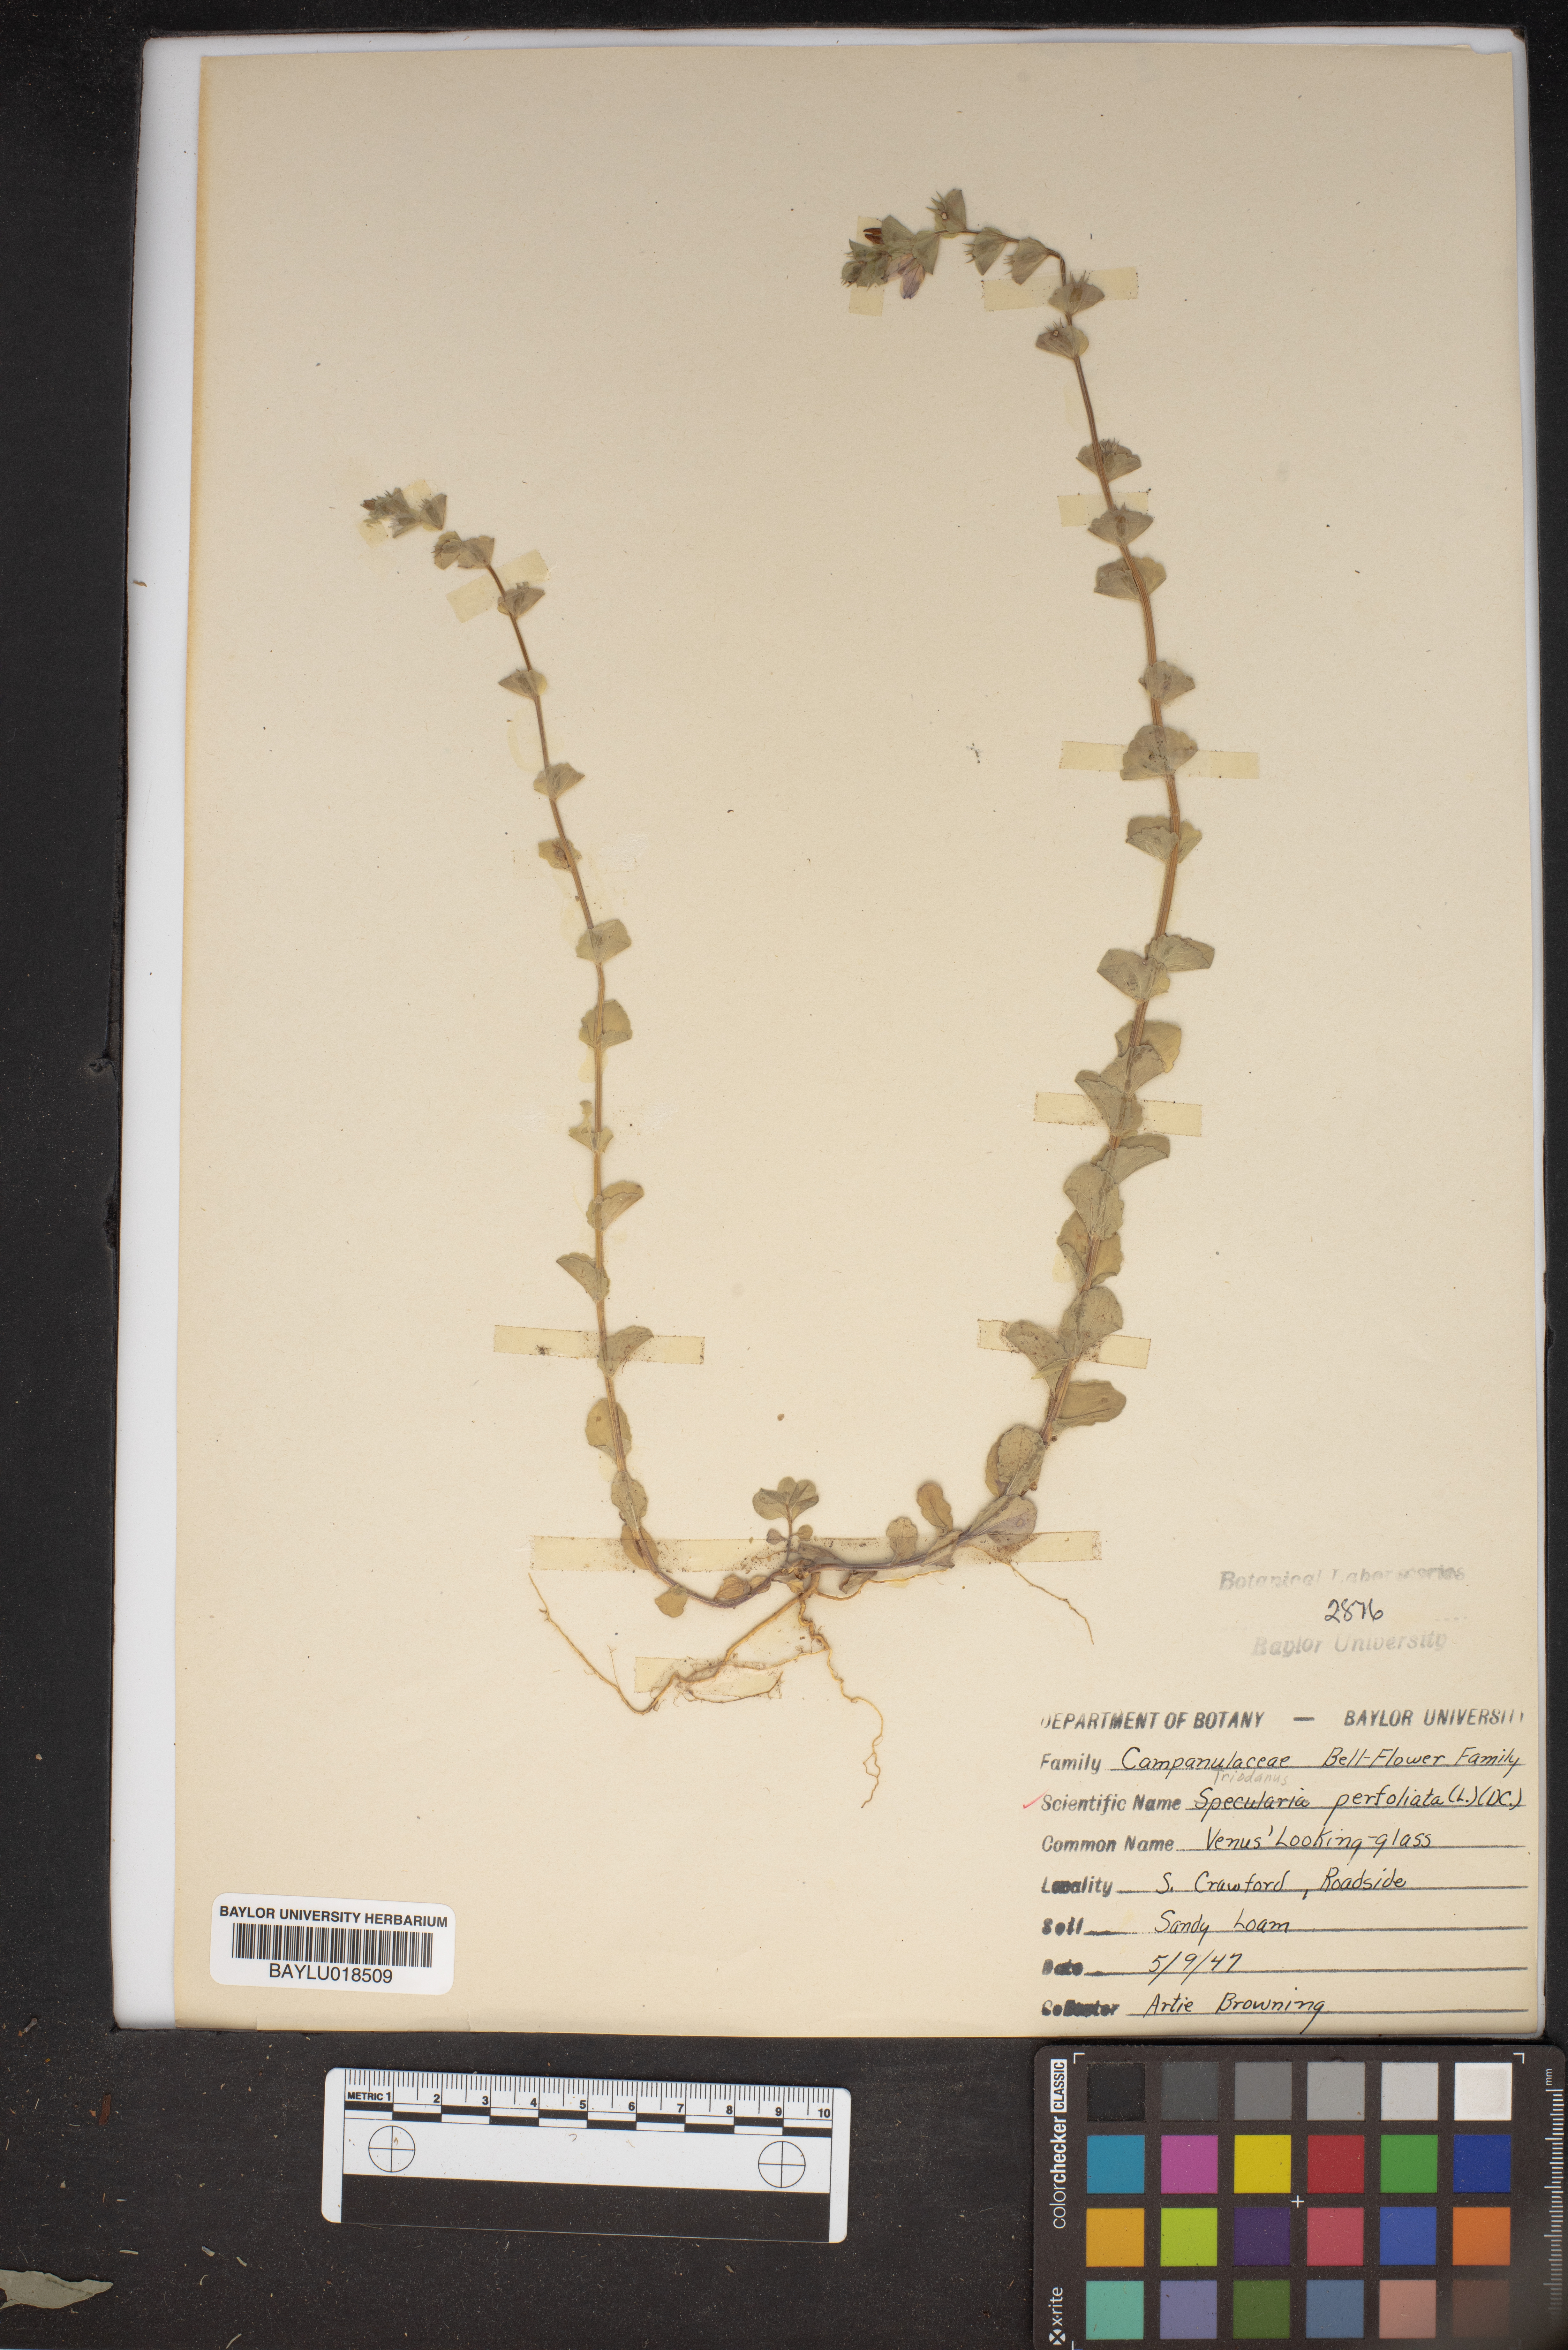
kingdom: Plantae
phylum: Tracheophyta
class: Magnoliopsida
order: Asterales
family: Campanulaceae
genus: Triodanis
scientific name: Triodanis perfoliata
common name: Clasping venus' looking-glass
